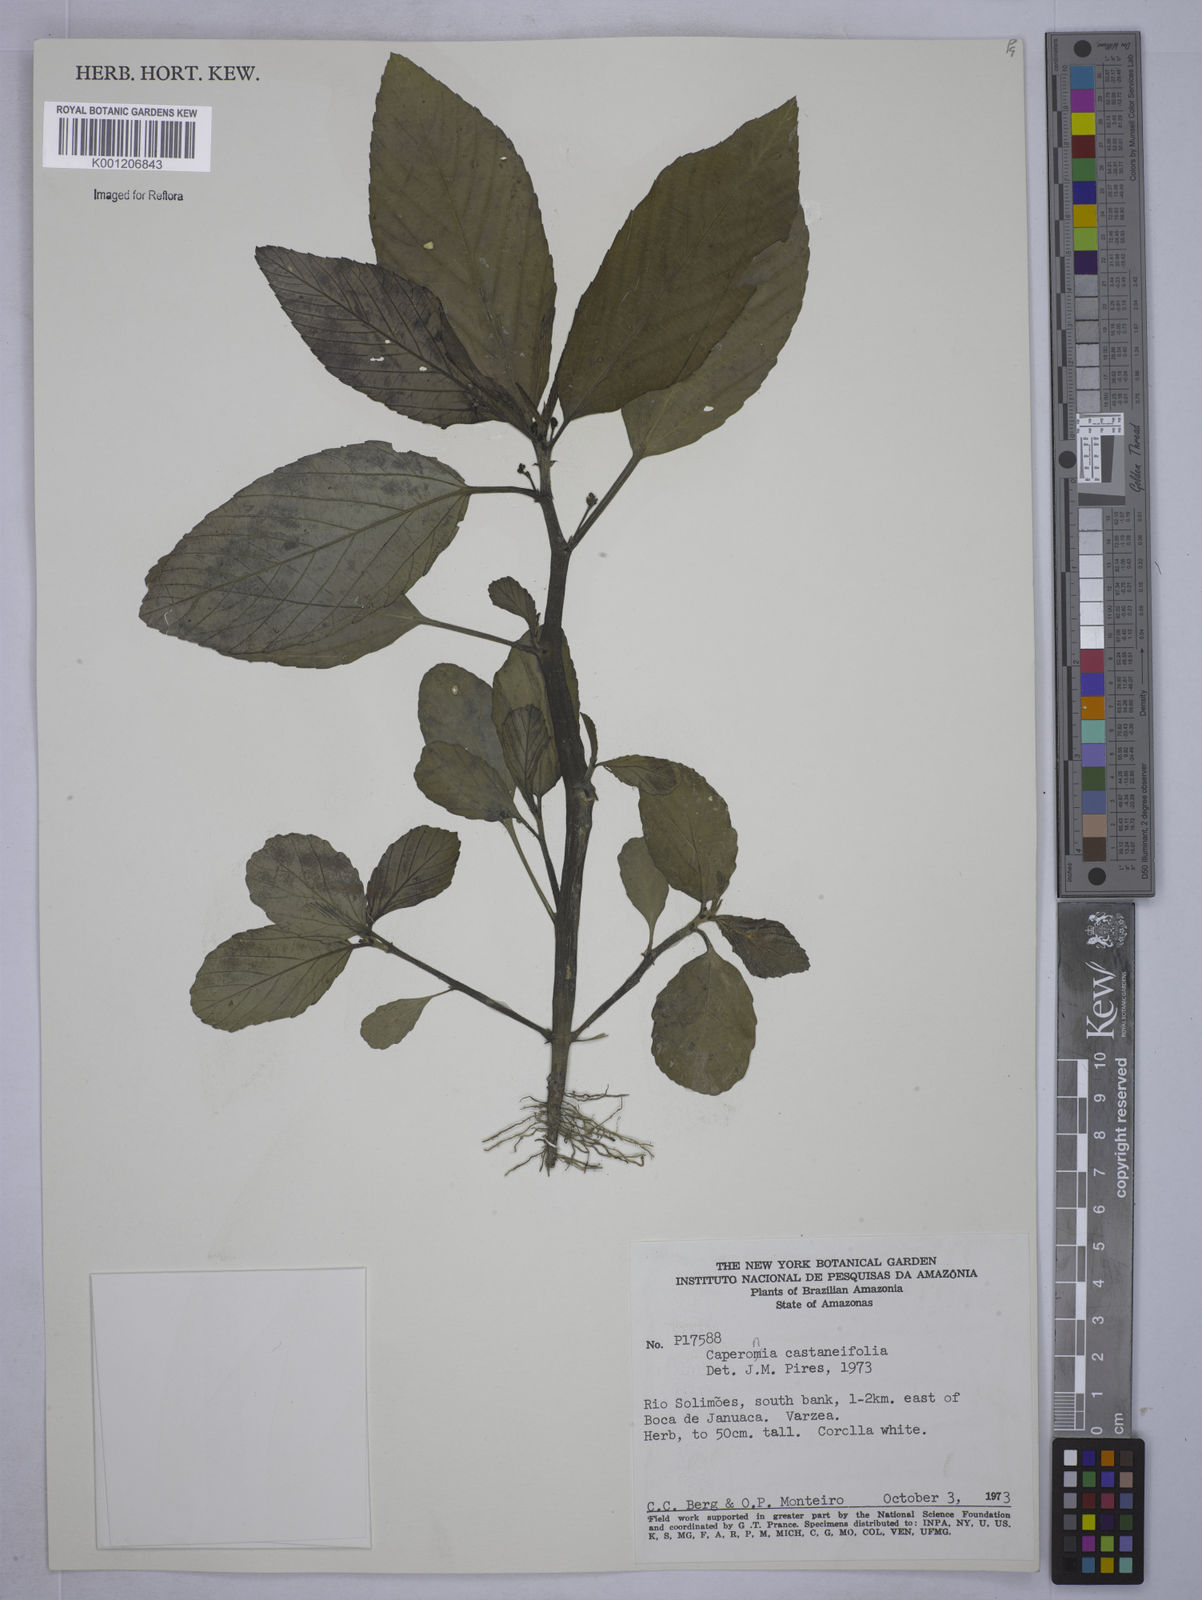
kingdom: Plantae
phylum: Tracheophyta
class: Magnoliopsida
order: Malpighiales
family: Euphorbiaceae
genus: Caperonia
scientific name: Caperonia castaneifolia
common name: Chestnutleaf false croton
